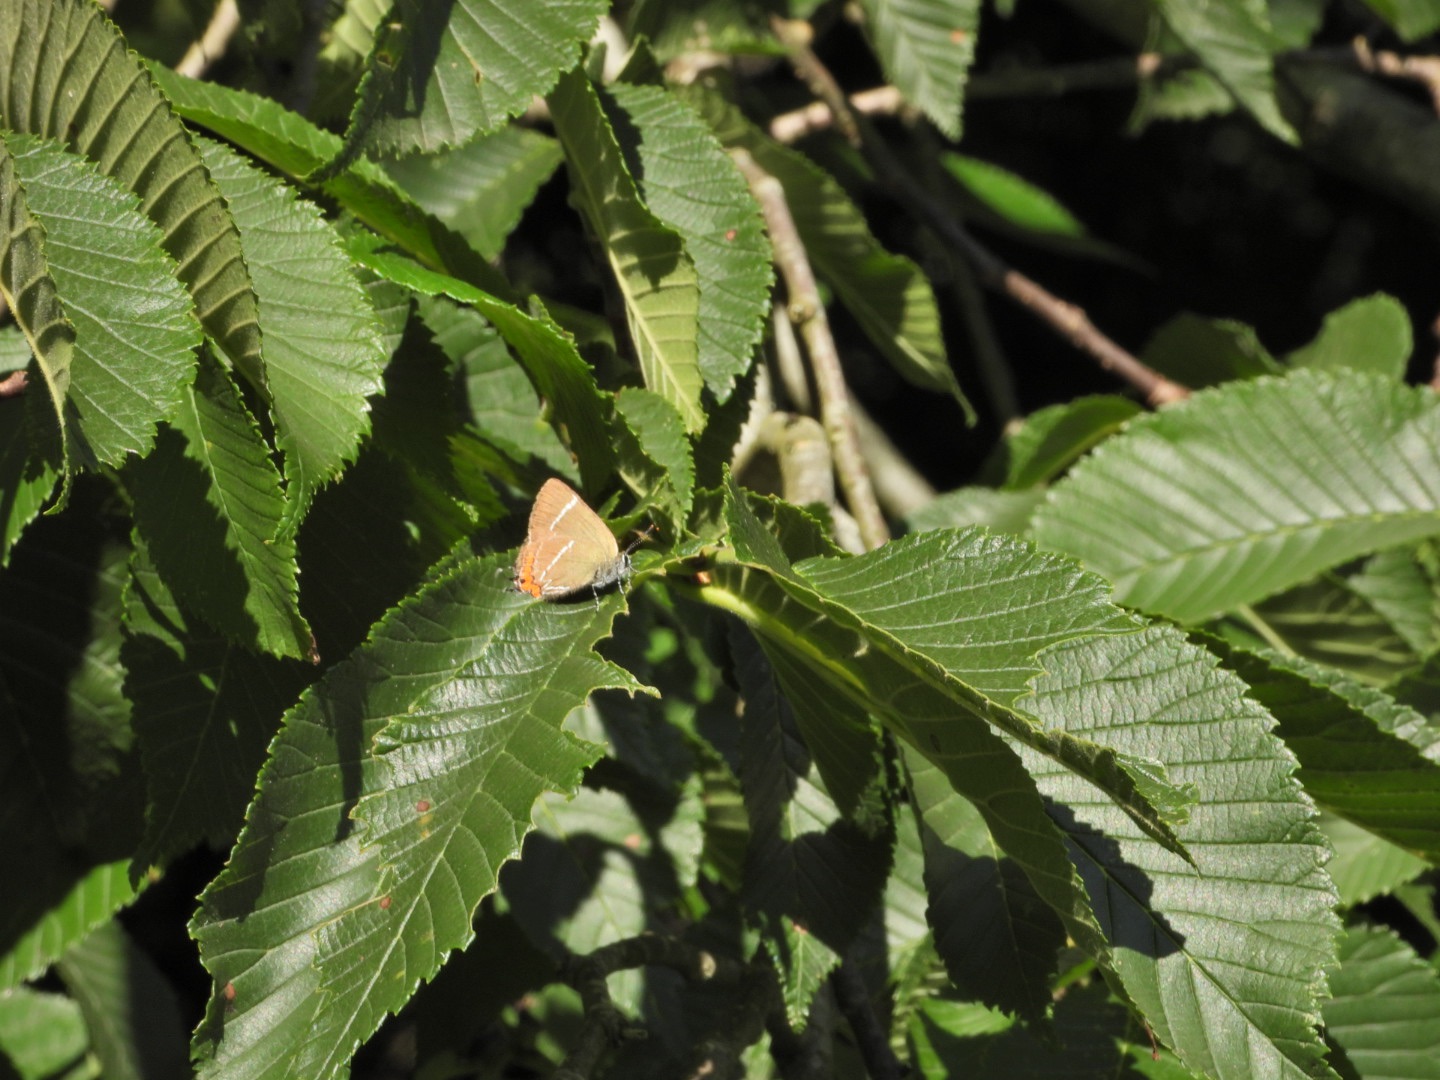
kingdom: Animalia
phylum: Arthropoda
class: Insecta
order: Lepidoptera
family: Lycaenidae
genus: Satyrium
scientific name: Satyrium w-album
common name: Det hvide W
